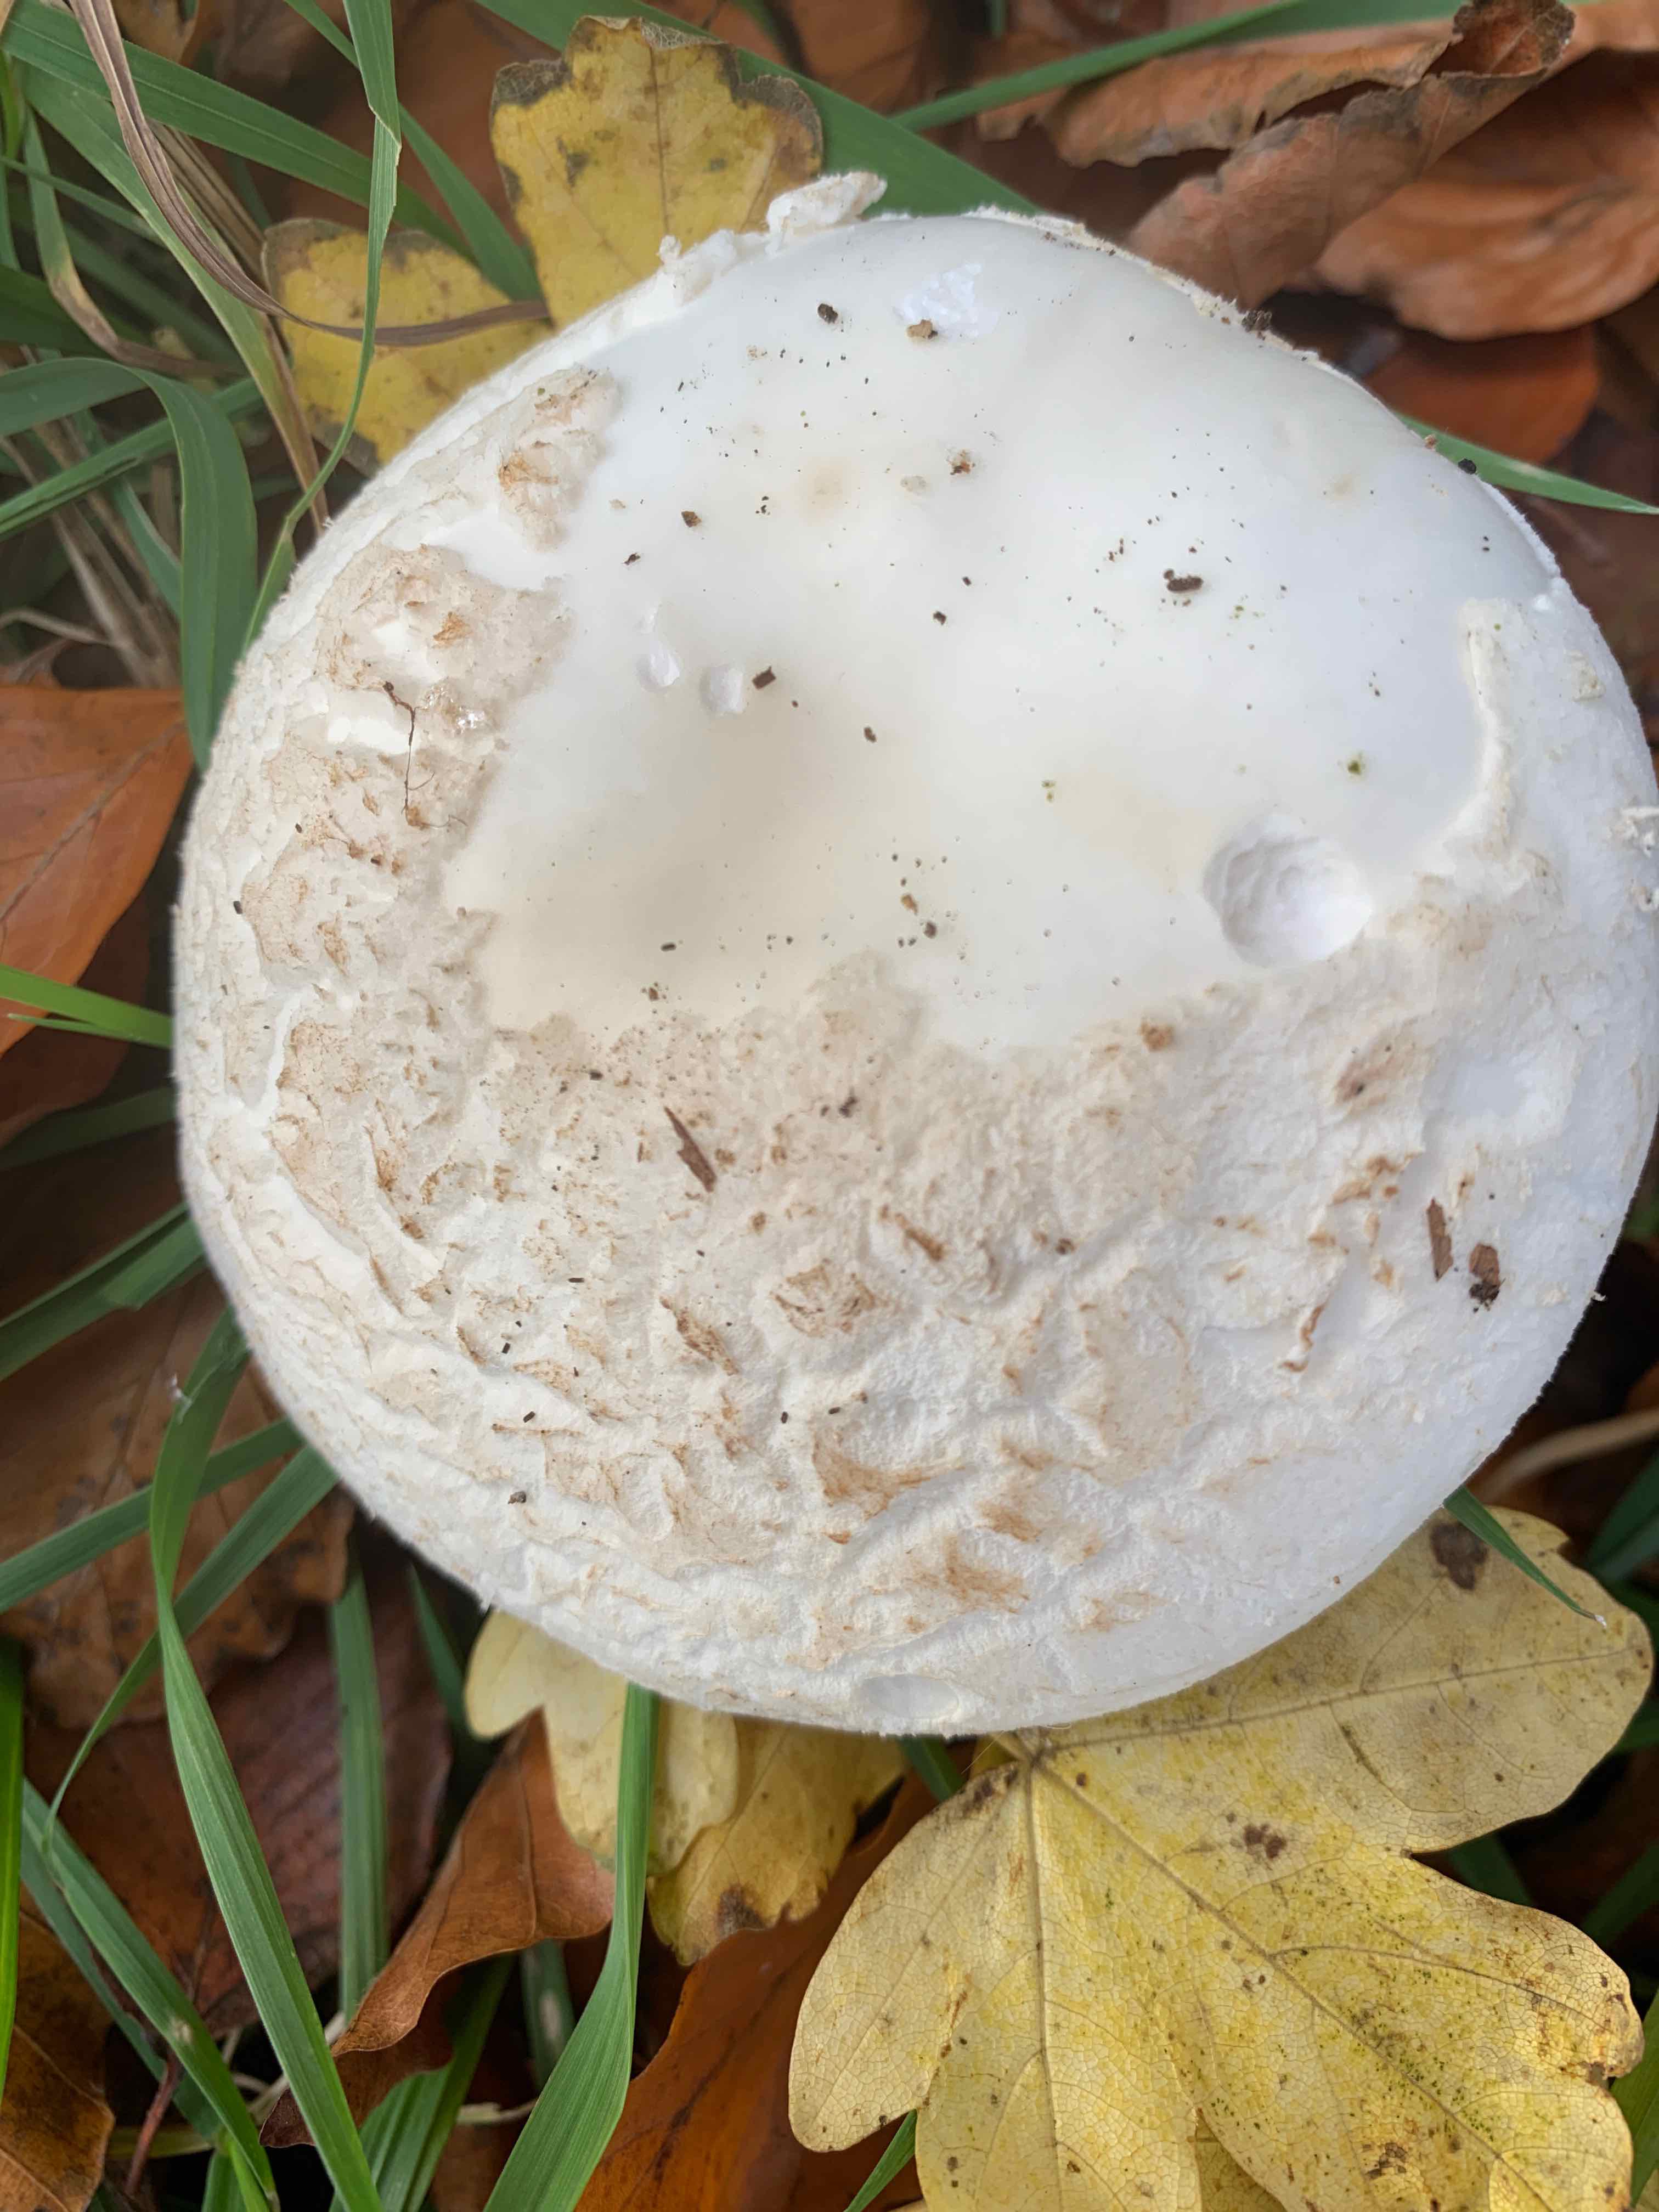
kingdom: Fungi
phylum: Basidiomycota
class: Agaricomycetes
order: Agaricales
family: Amanitaceae
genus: Amanita
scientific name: Amanita citrina
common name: kugleknoldet fluesvamp
